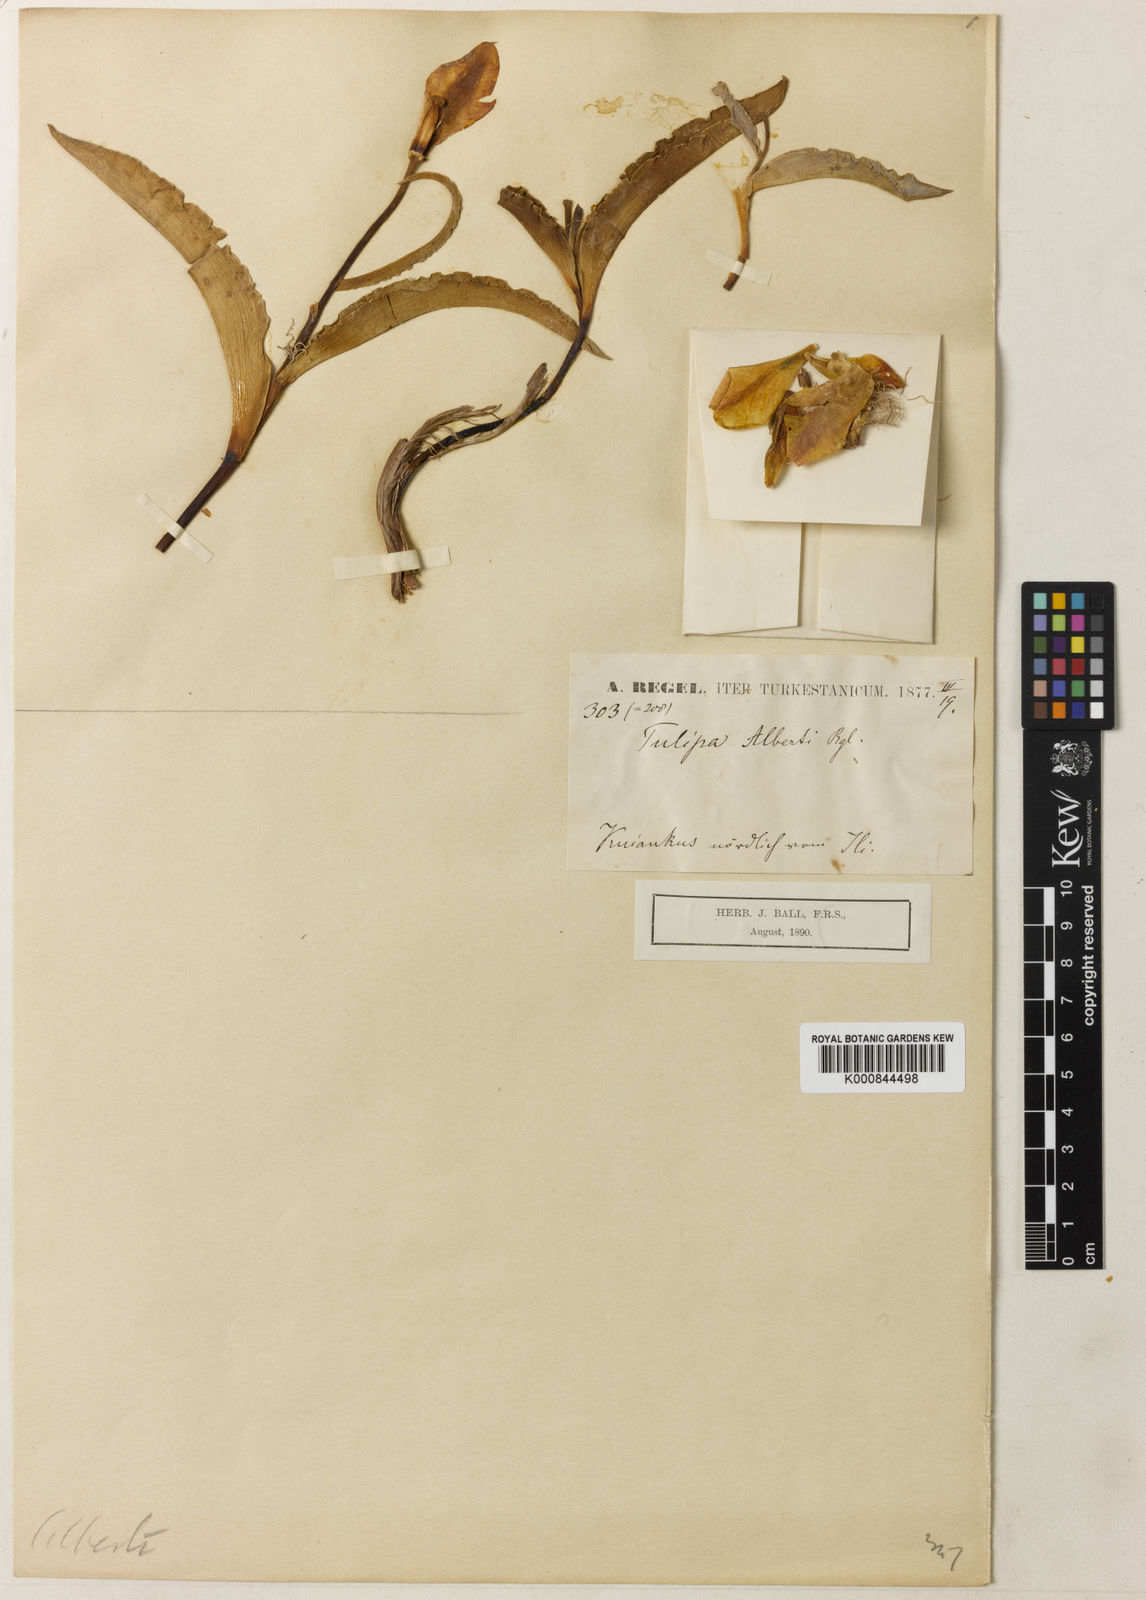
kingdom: Plantae
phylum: Tracheophyta
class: Liliopsida
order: Liliales
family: Liliaceae
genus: Tulipa
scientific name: Tulipa alberti
